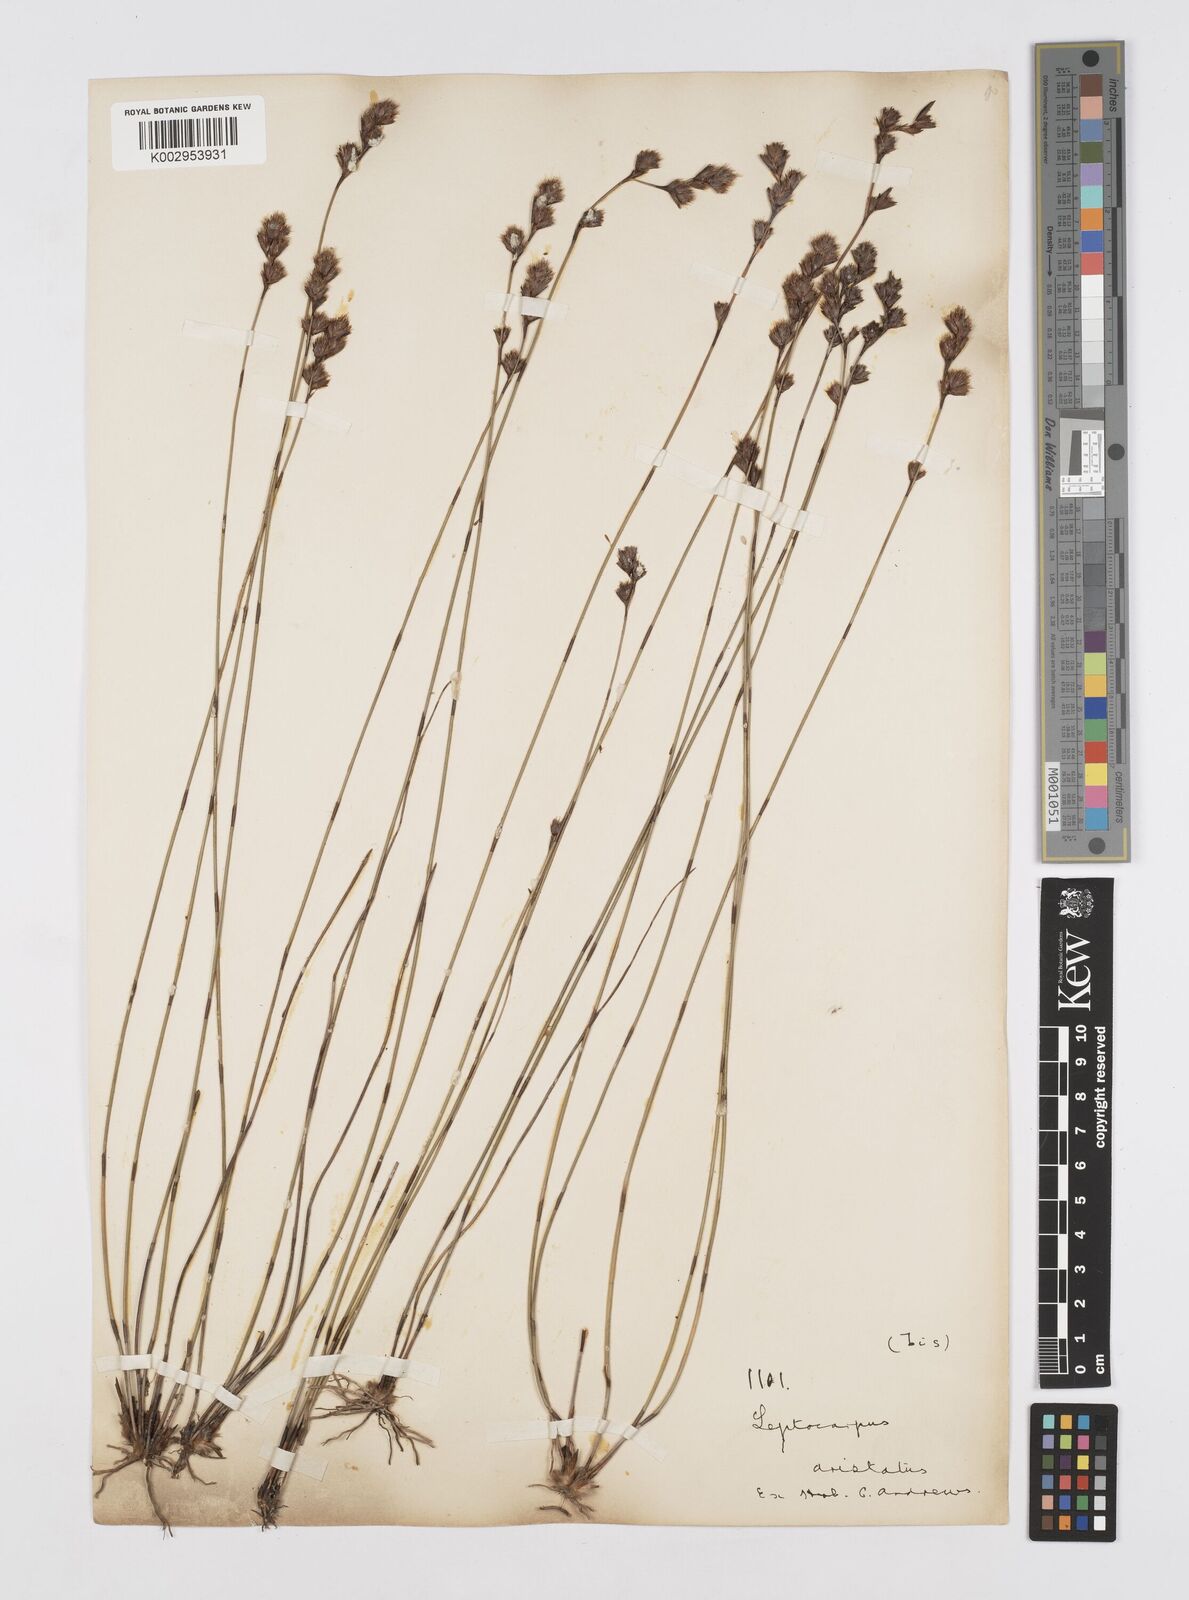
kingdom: Plantae
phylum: Tracheophyta
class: Liliopsida
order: Poales
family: Restionaceae
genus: Chaetanthus
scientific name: Chaetanthus aristatus
